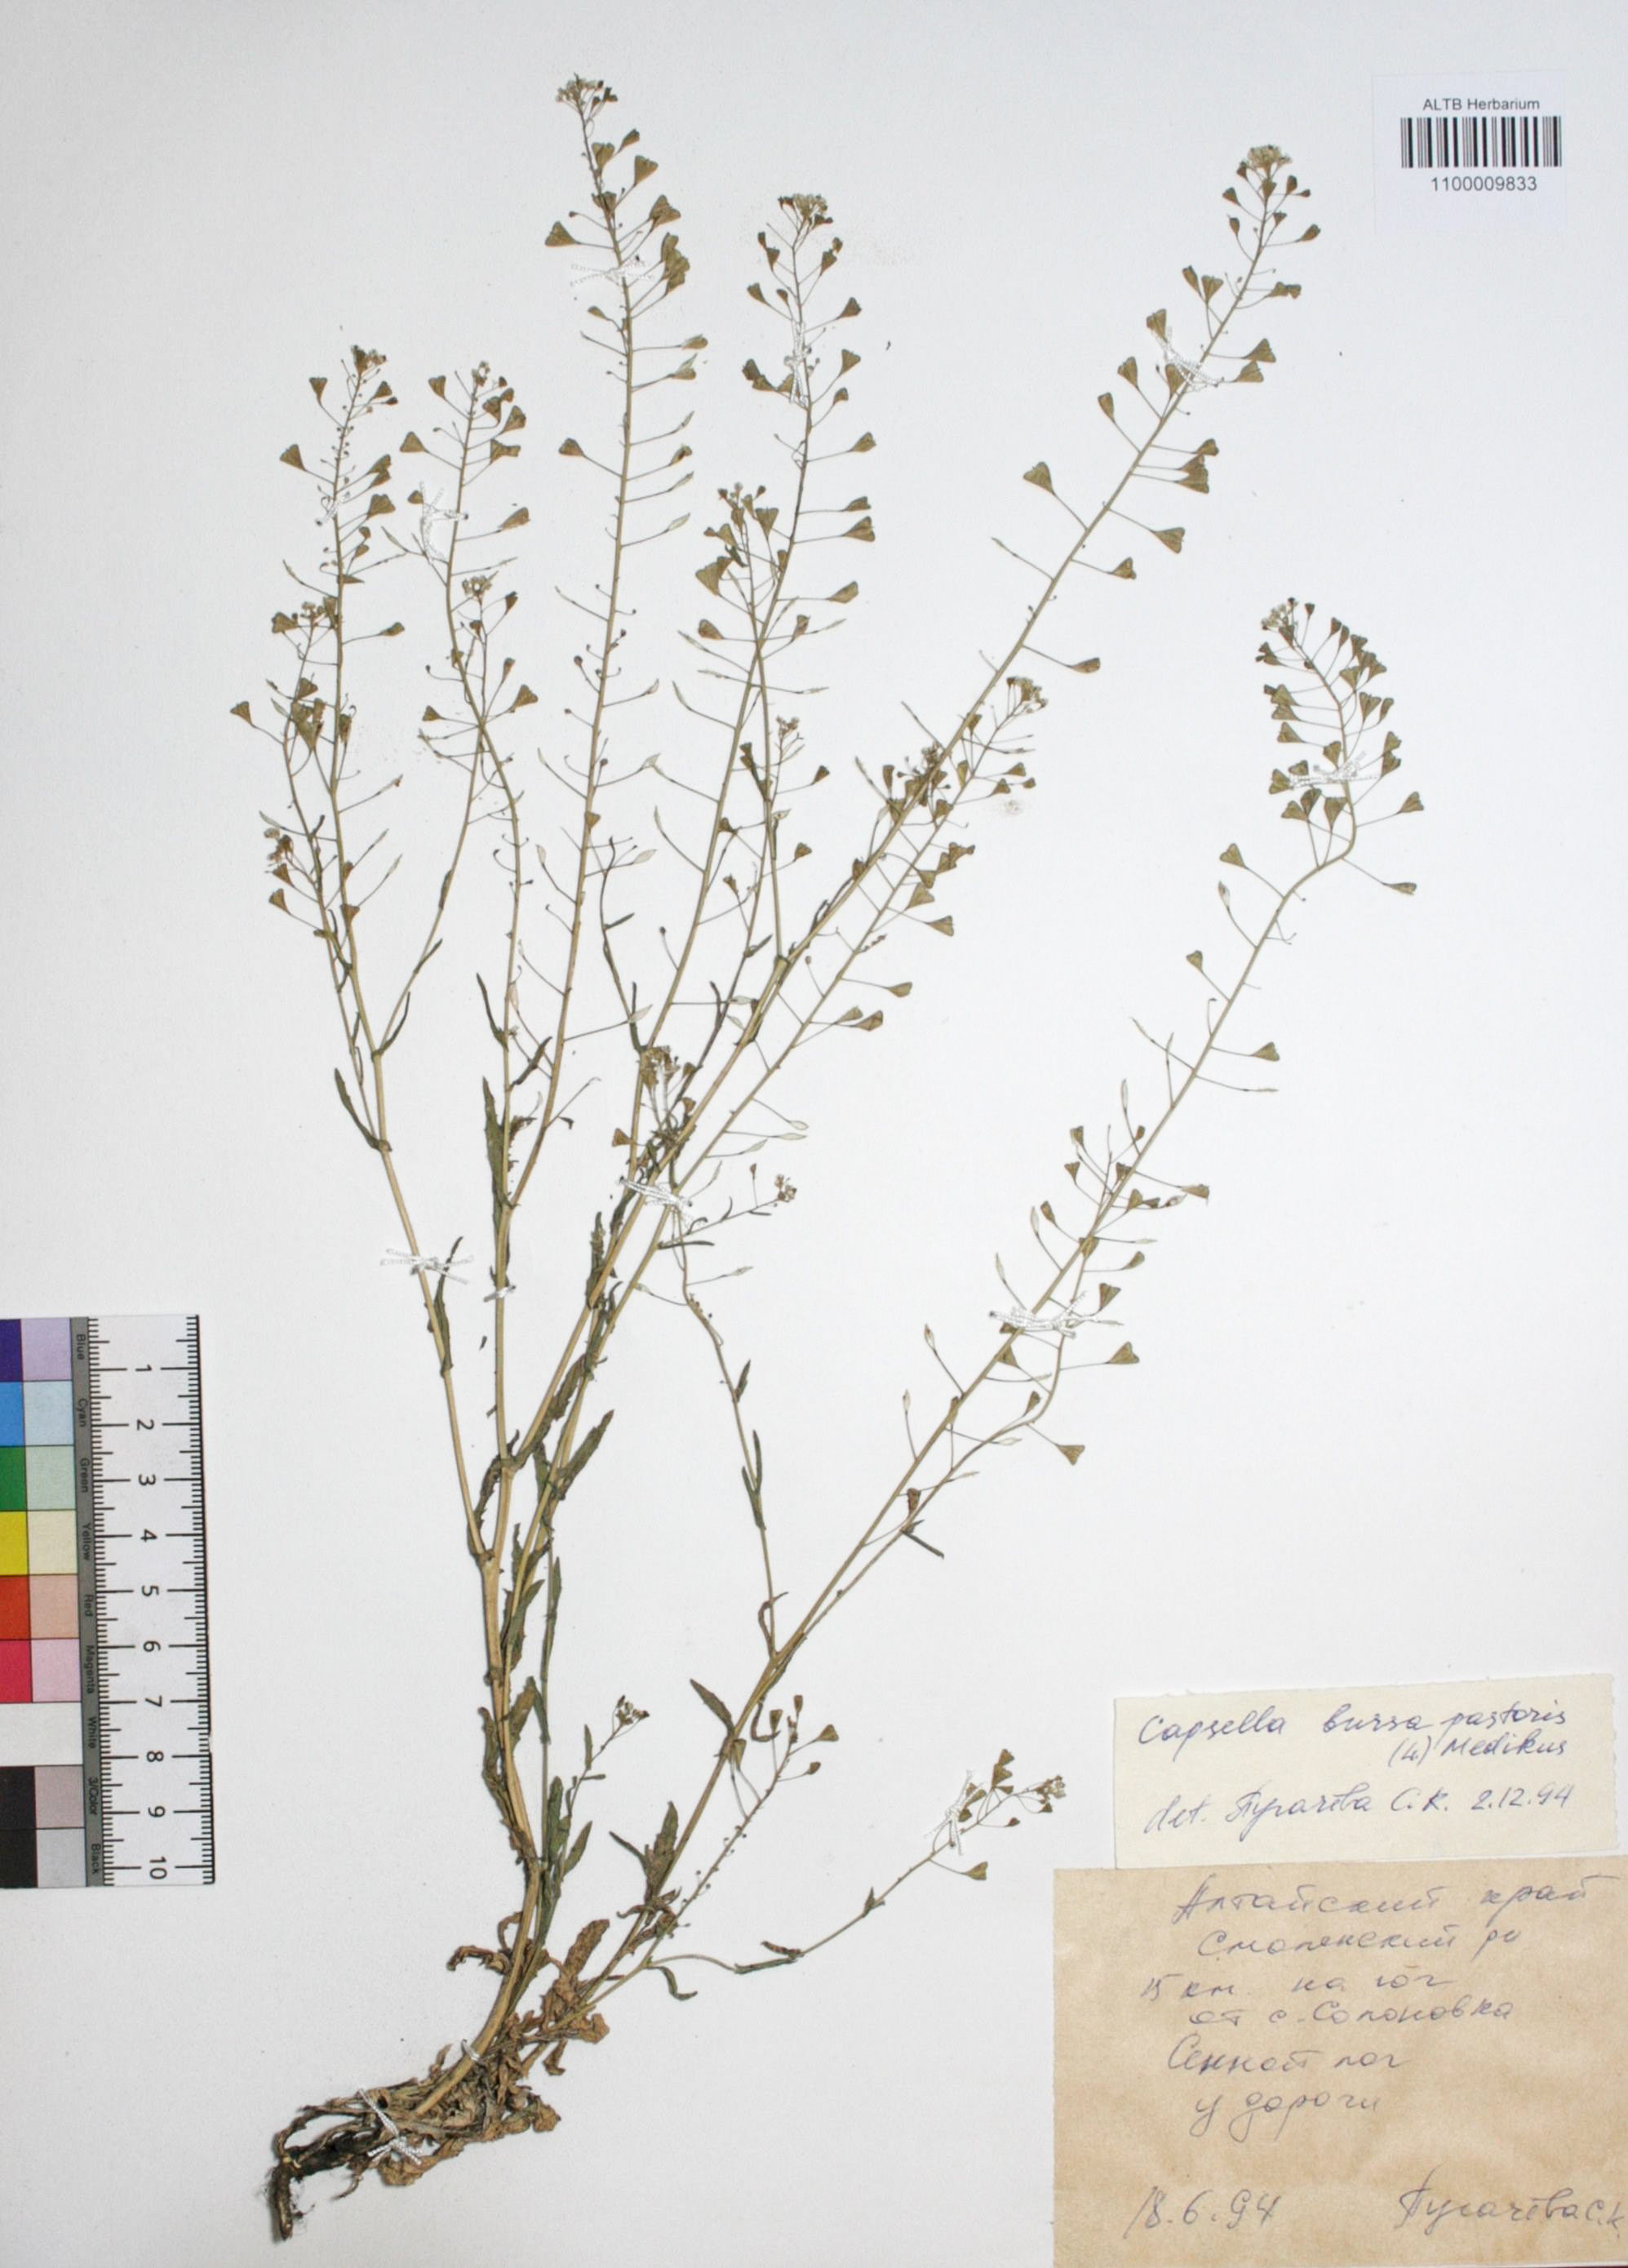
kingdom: Plantae
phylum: Tracheophyta
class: Magnoliopsida
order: Brassicales
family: Brassicaceae
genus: Capsella
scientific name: Capsella bursa-pastoris
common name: Shepherd's purse
